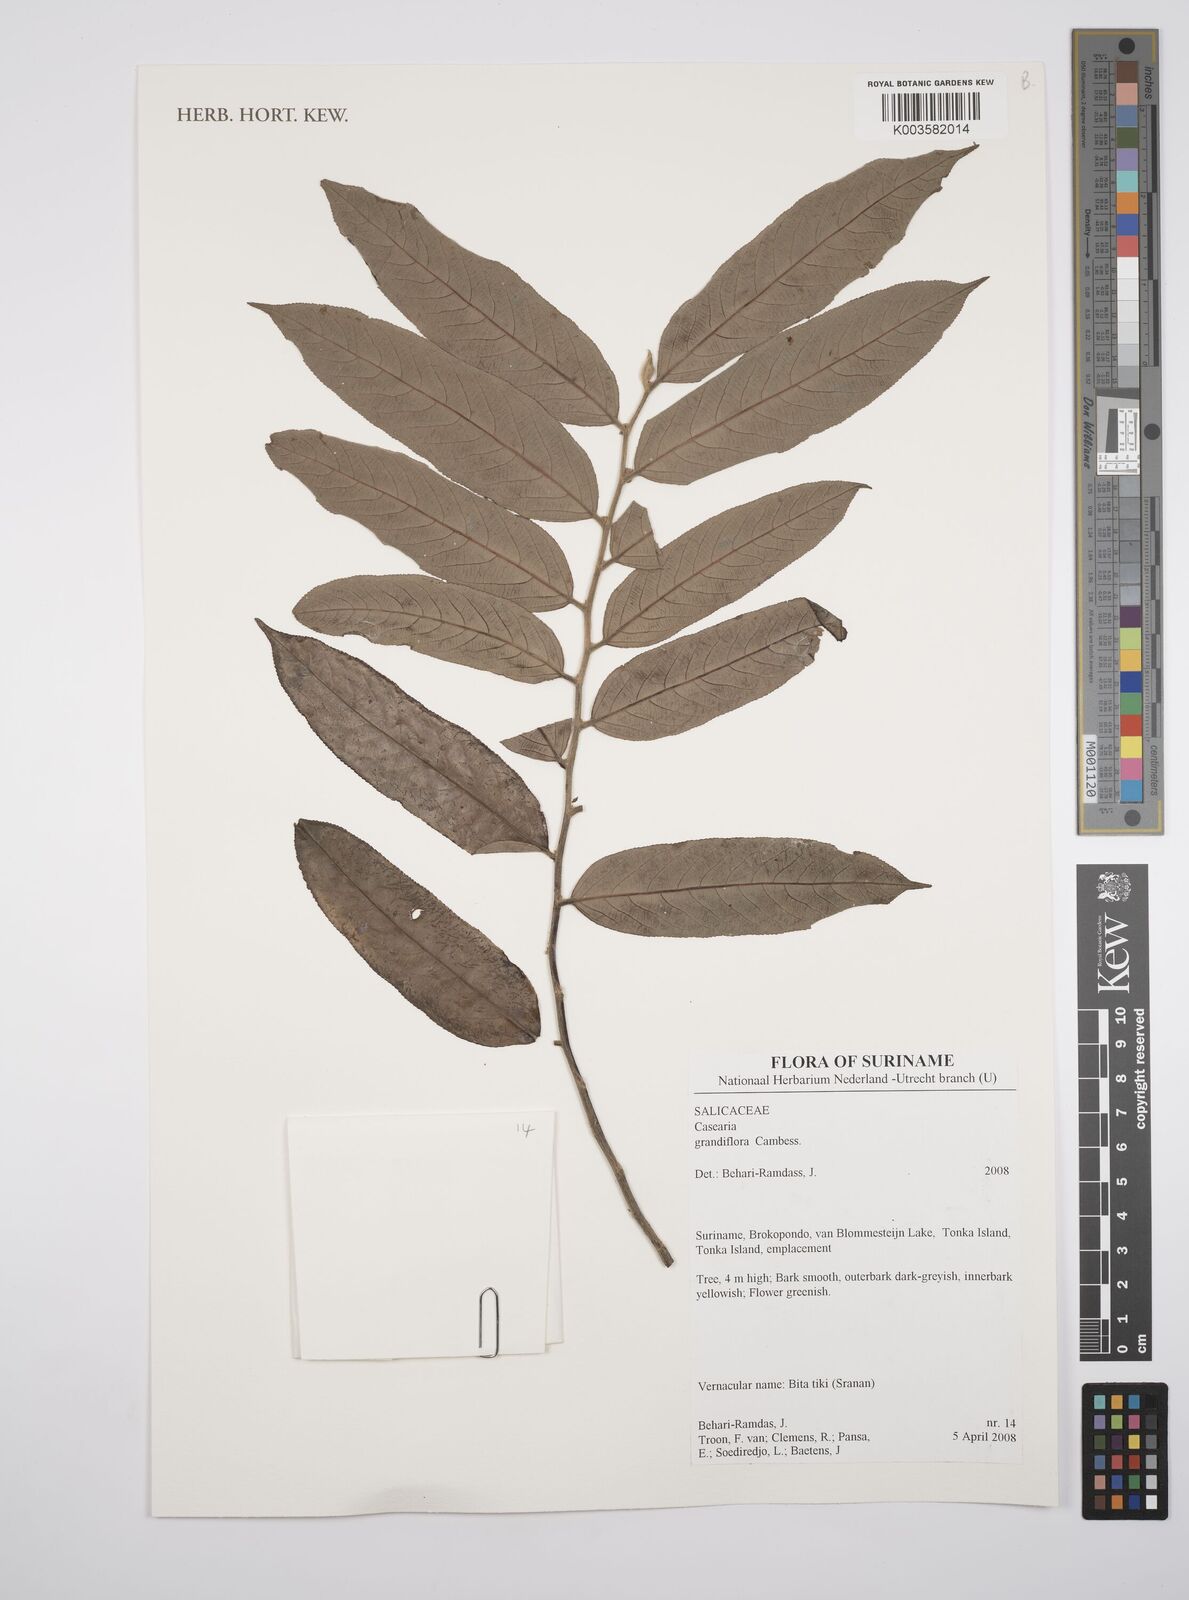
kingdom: Plantae
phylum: Tracheophyta
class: Magnoliopsida
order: Malpighiales
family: Salicaceae
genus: Casearia
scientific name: Casearia grandiflora
